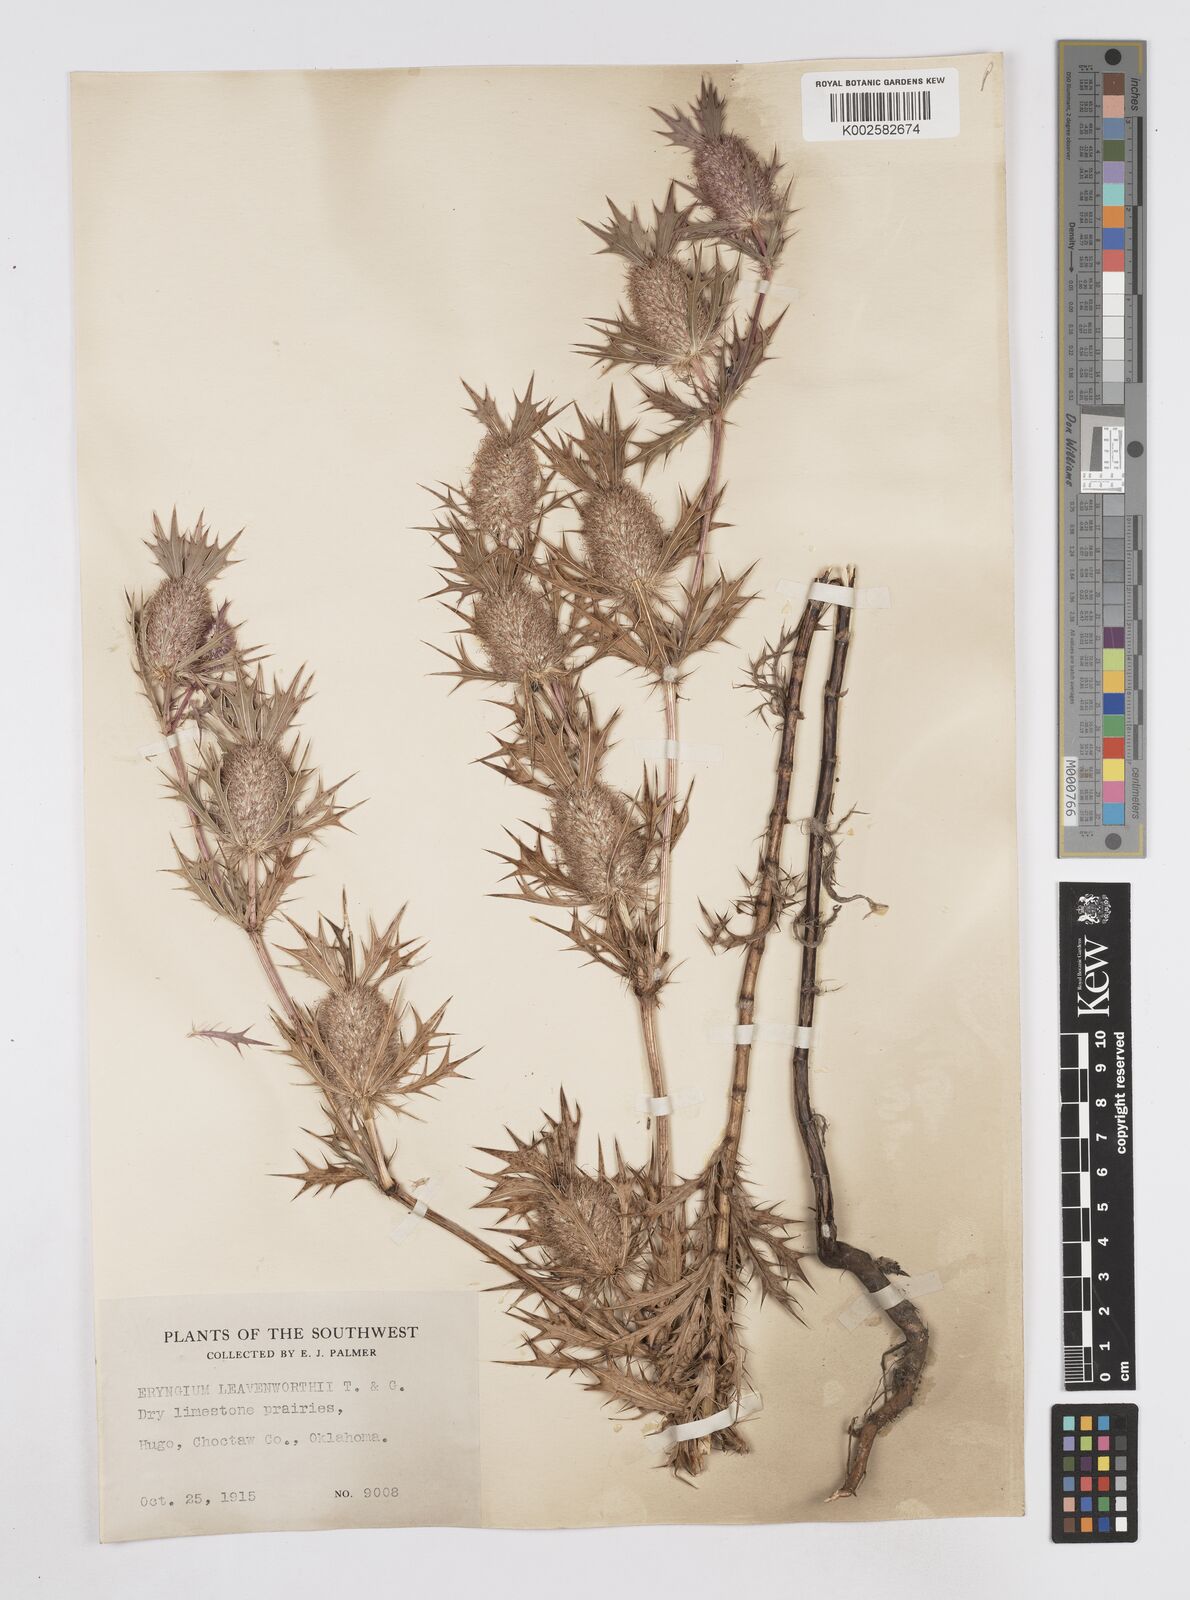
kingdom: Plantae
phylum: Tracheophyta
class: Magnoliopsida
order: Apiales
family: Apiaceae
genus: Eryngium
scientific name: Eryngium leavenworthii
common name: Leavenworth's eryngo
